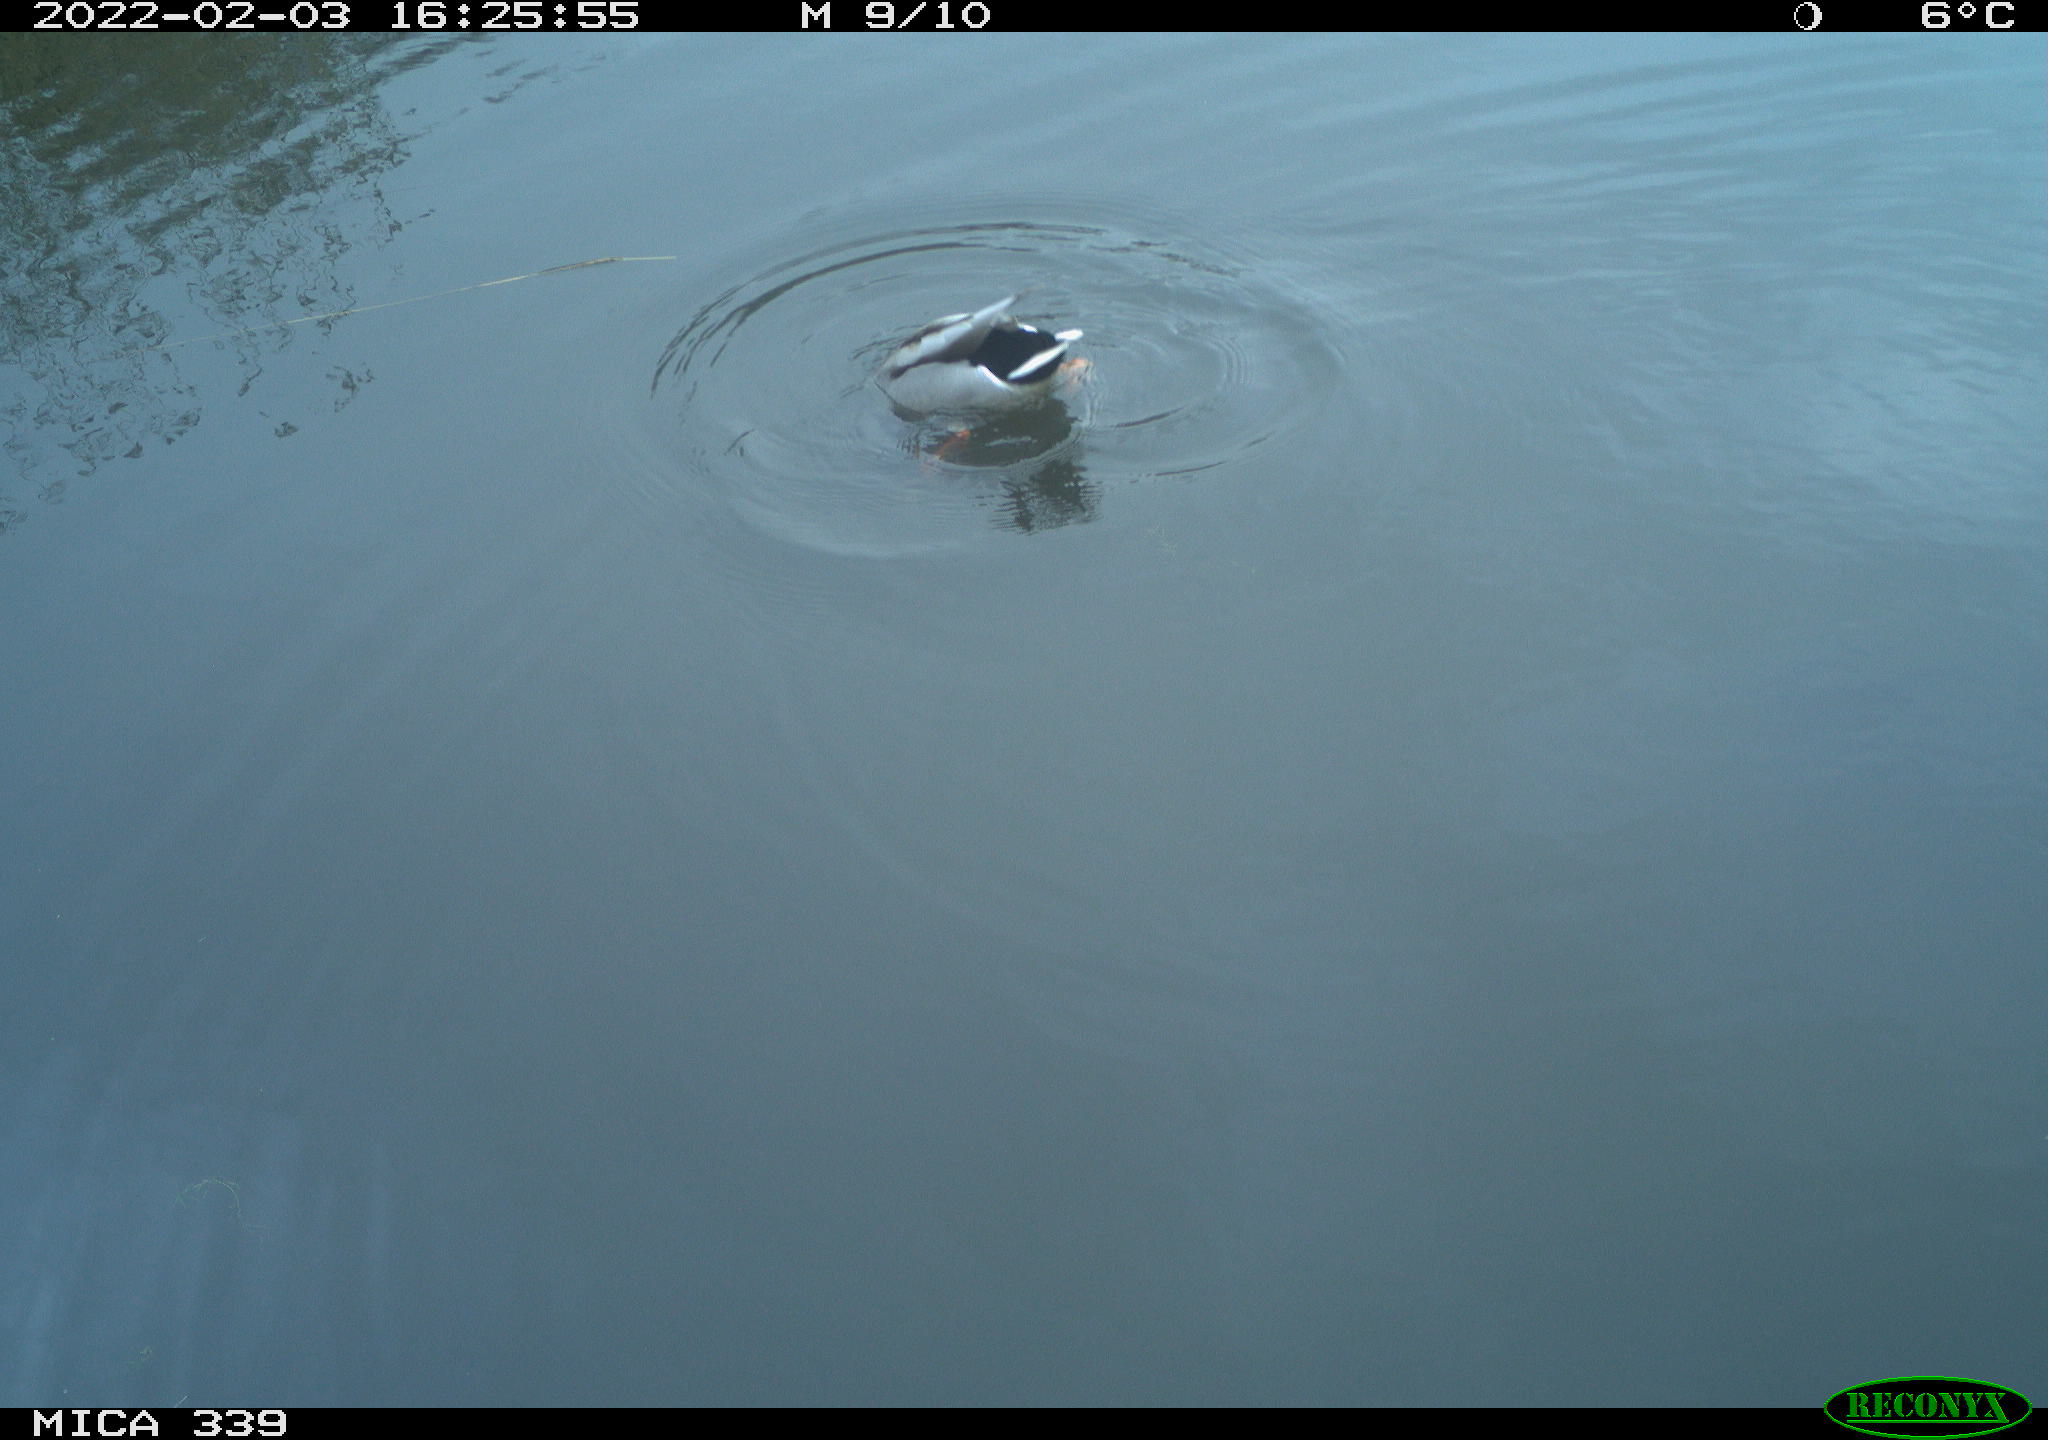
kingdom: Animalia
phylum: Chordata
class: Aves
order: Anseriformes
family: Anatidae
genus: Anas
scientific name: Anas platyrhynchos
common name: Mallard
